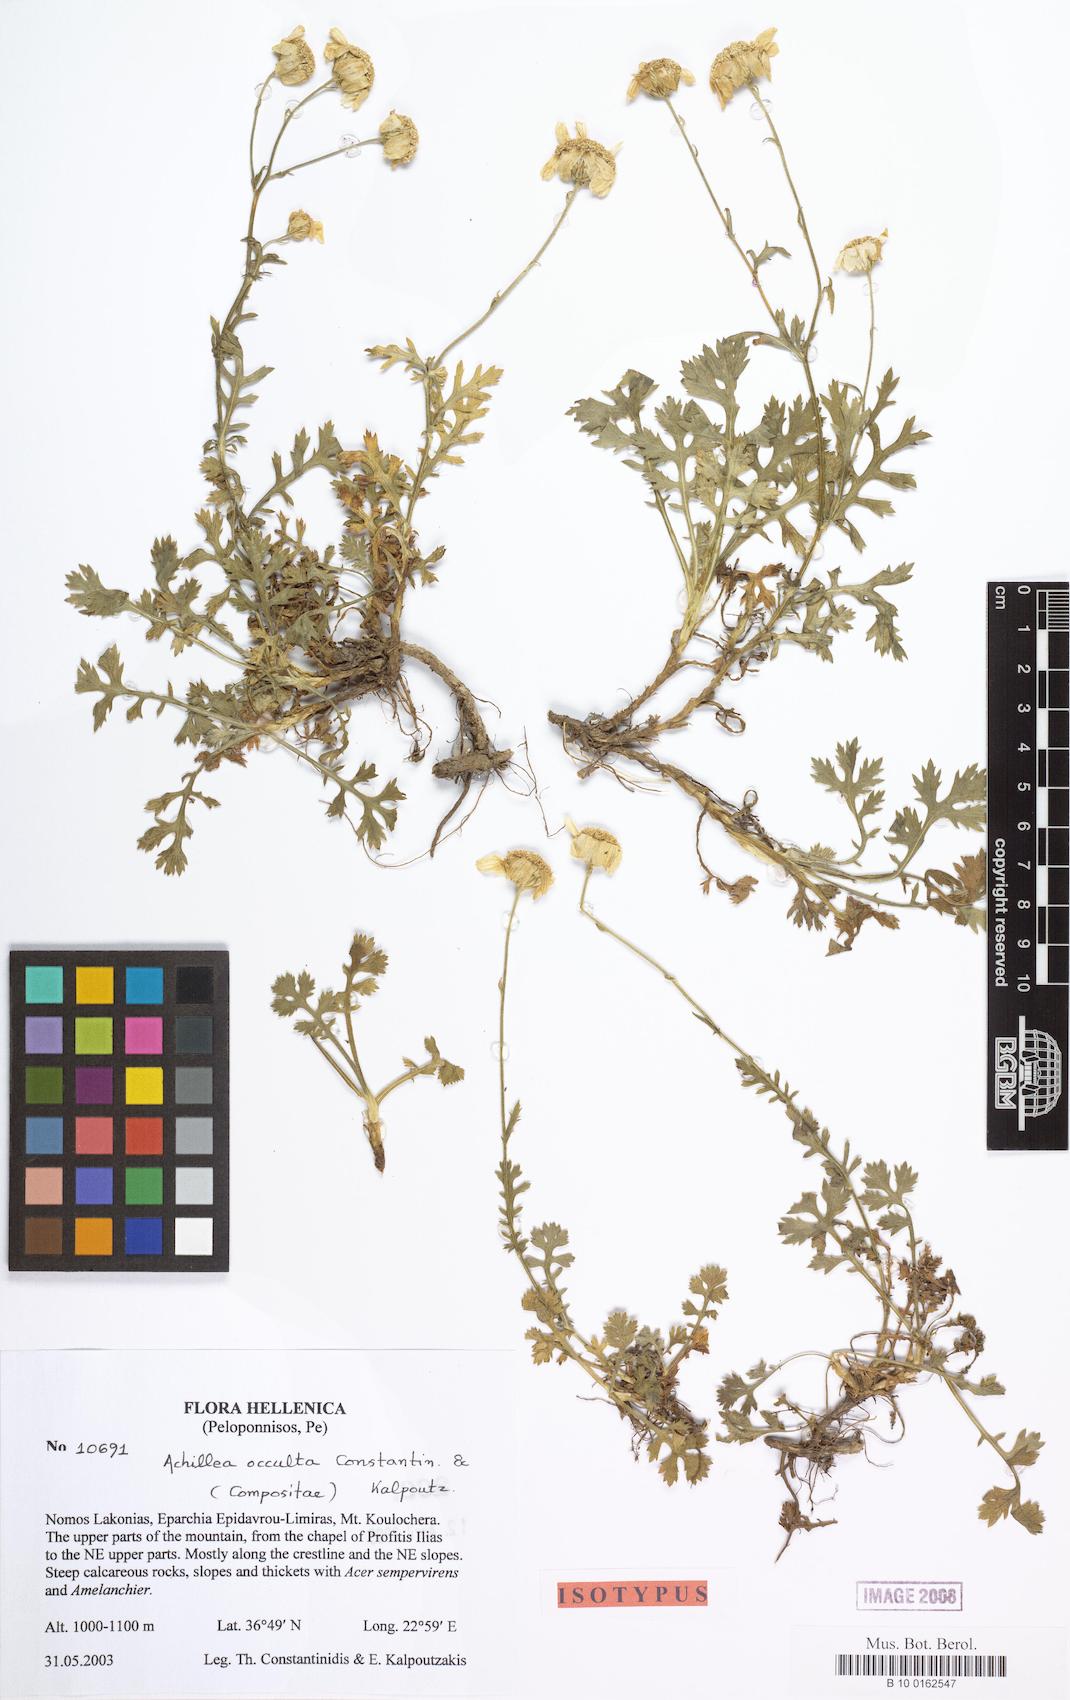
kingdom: Plantae
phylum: Tracheophyta
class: Magnoliopsida
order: Asterales
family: Asteraceae
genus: Achillea
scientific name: Achillea occulta
